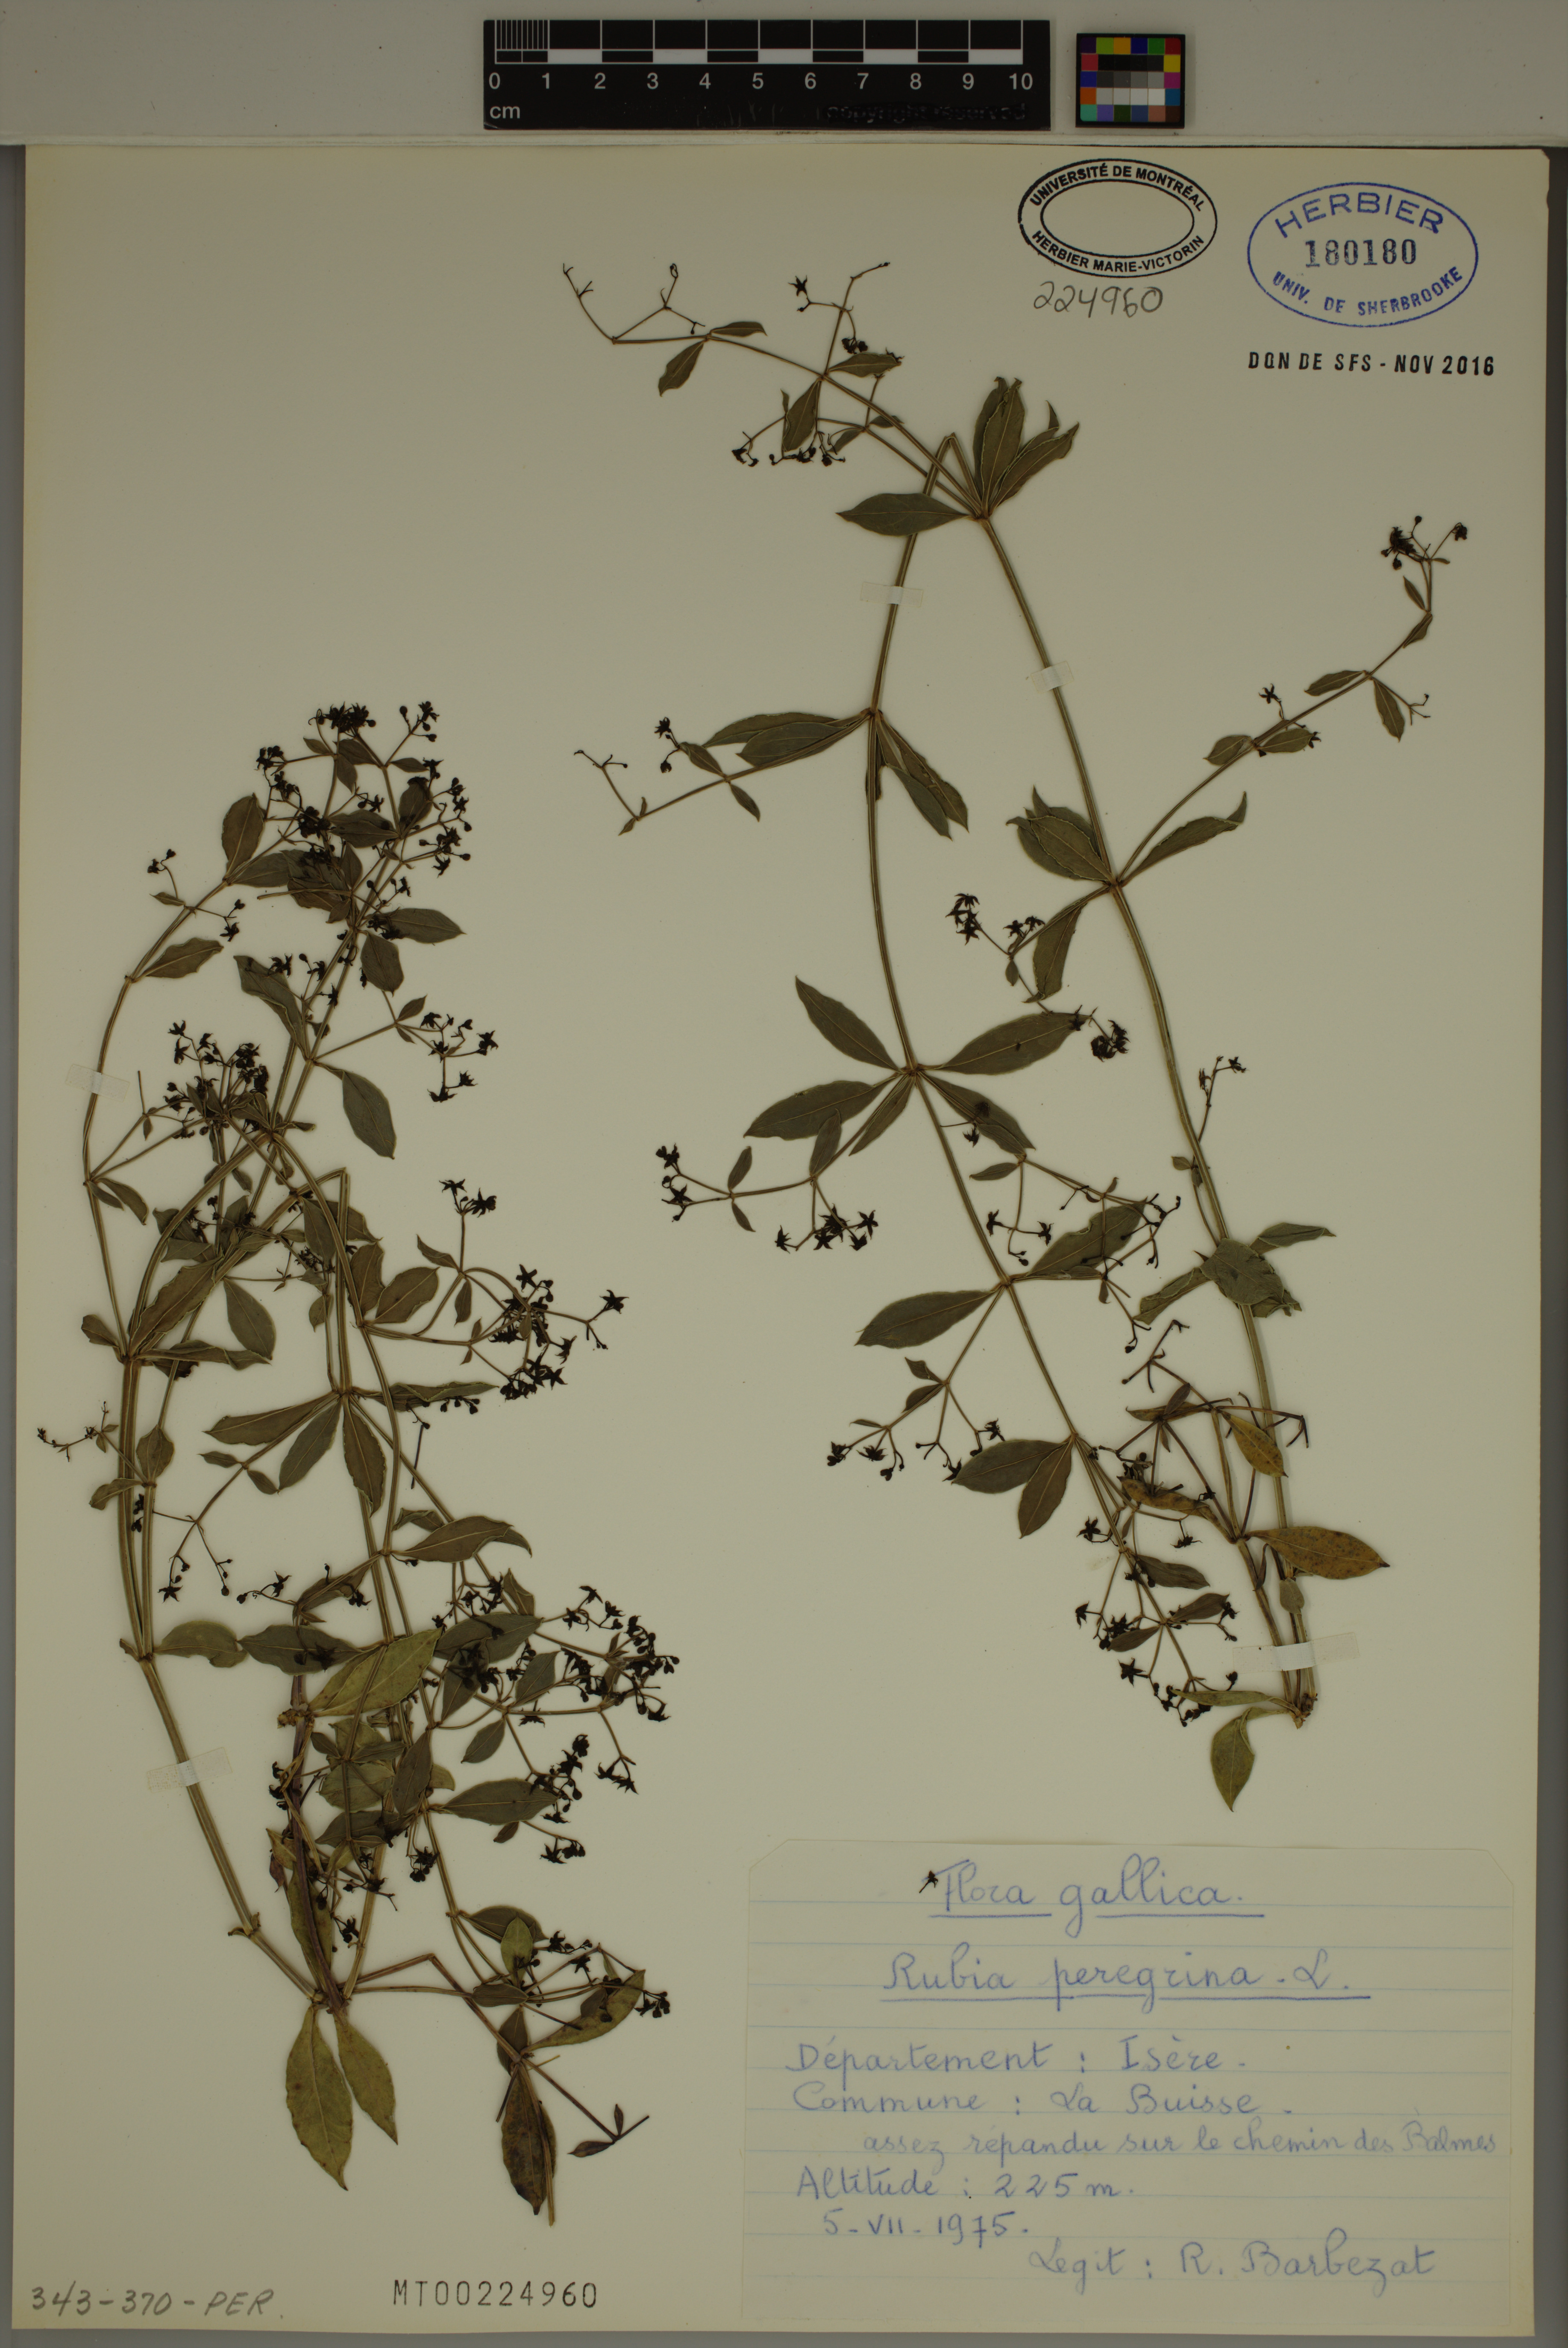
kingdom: Plantae
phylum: Tracheophyta
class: Magnoliopsida
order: Gentianales
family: Rubiaceae
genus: Rubia
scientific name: Rubia peregrina
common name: Wild madder
